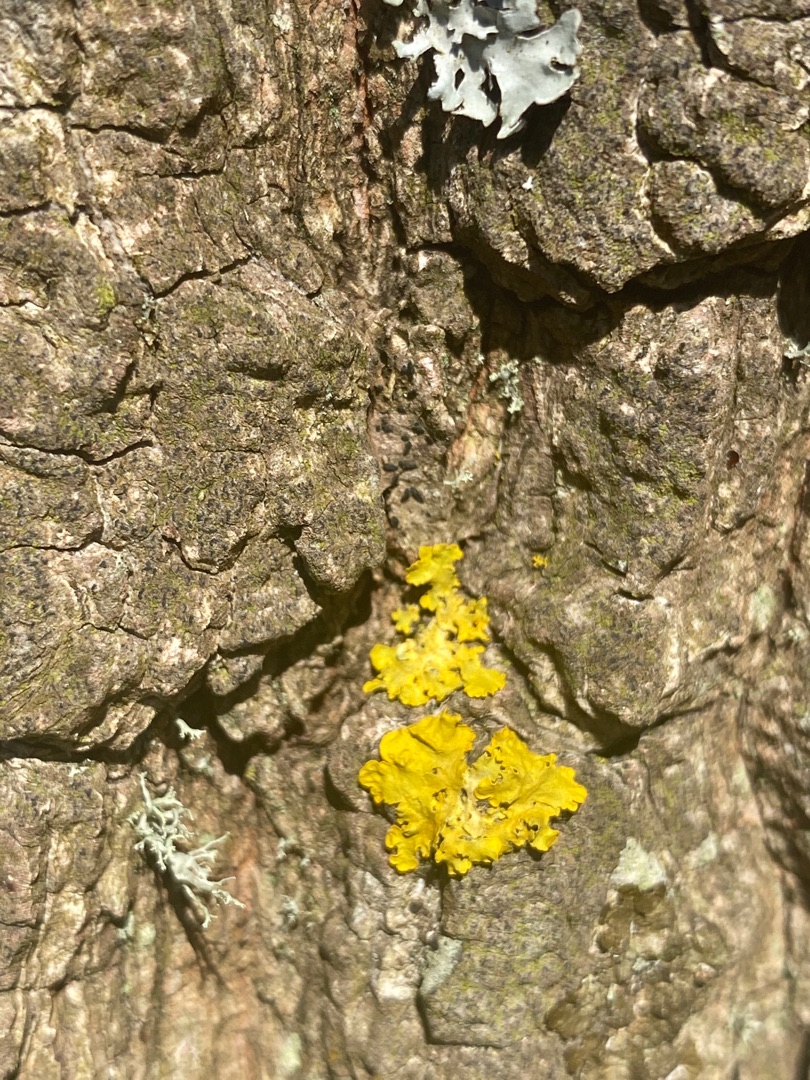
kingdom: Fungi
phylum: Ascomycota
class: Lecanoromycetes
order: Teloschistales
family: Teloschistaceae
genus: Xanthoria
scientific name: Xanthoria parietina
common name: Almindelig væggelav
